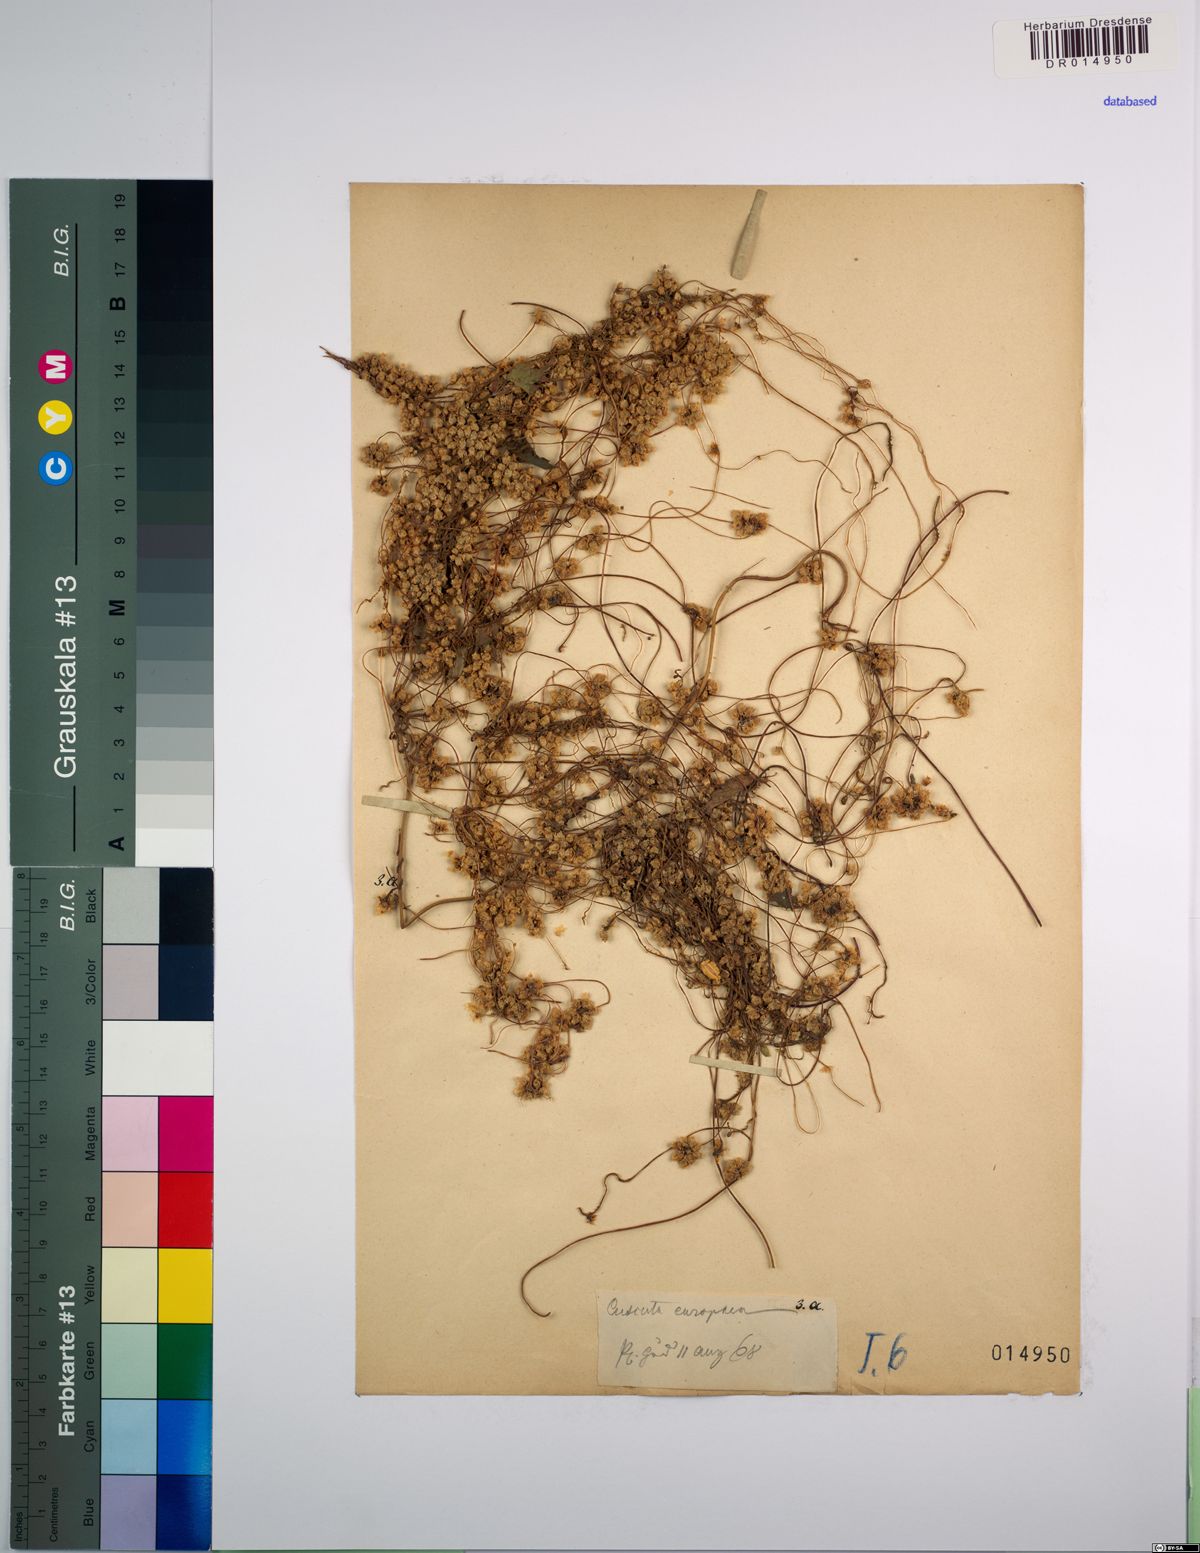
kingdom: Plantae
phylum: Tracheophyta
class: Magnoliopsida
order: Solanales
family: Convolvulaceae
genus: Cuscuta
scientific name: Cuscuta europaea
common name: Greater dodder
